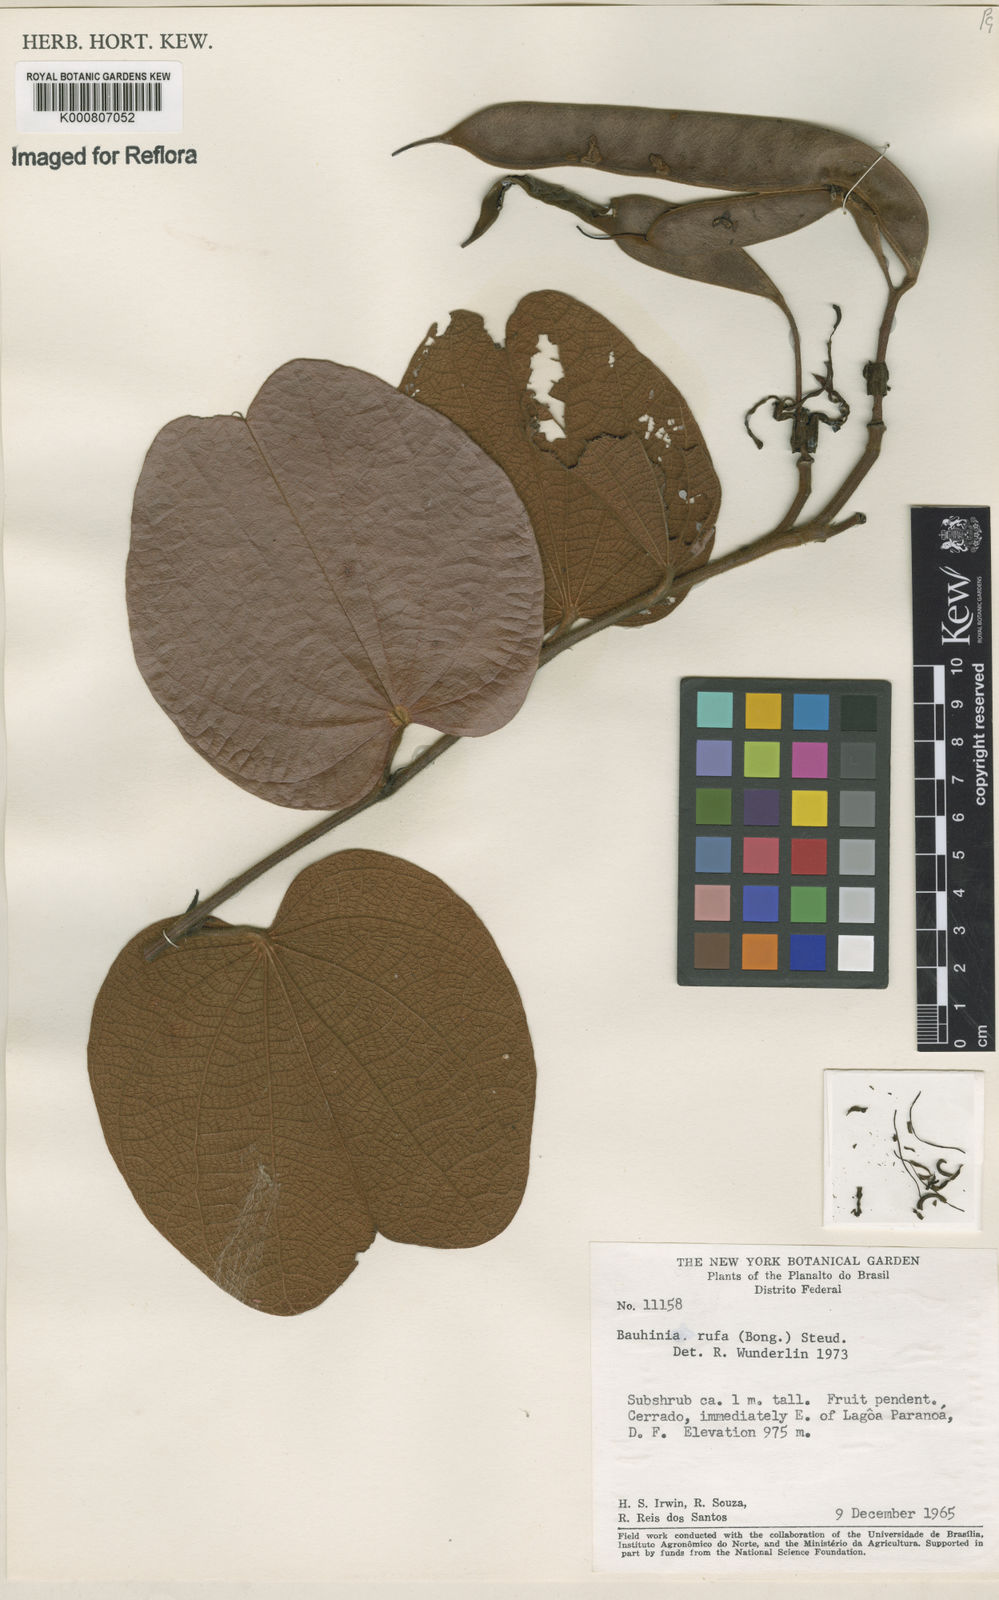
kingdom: Plantae
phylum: Tracheophyta
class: Magnoliopsida
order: Fabales
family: Fabaceae
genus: Bauhinia
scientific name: Bauhinia rufa
